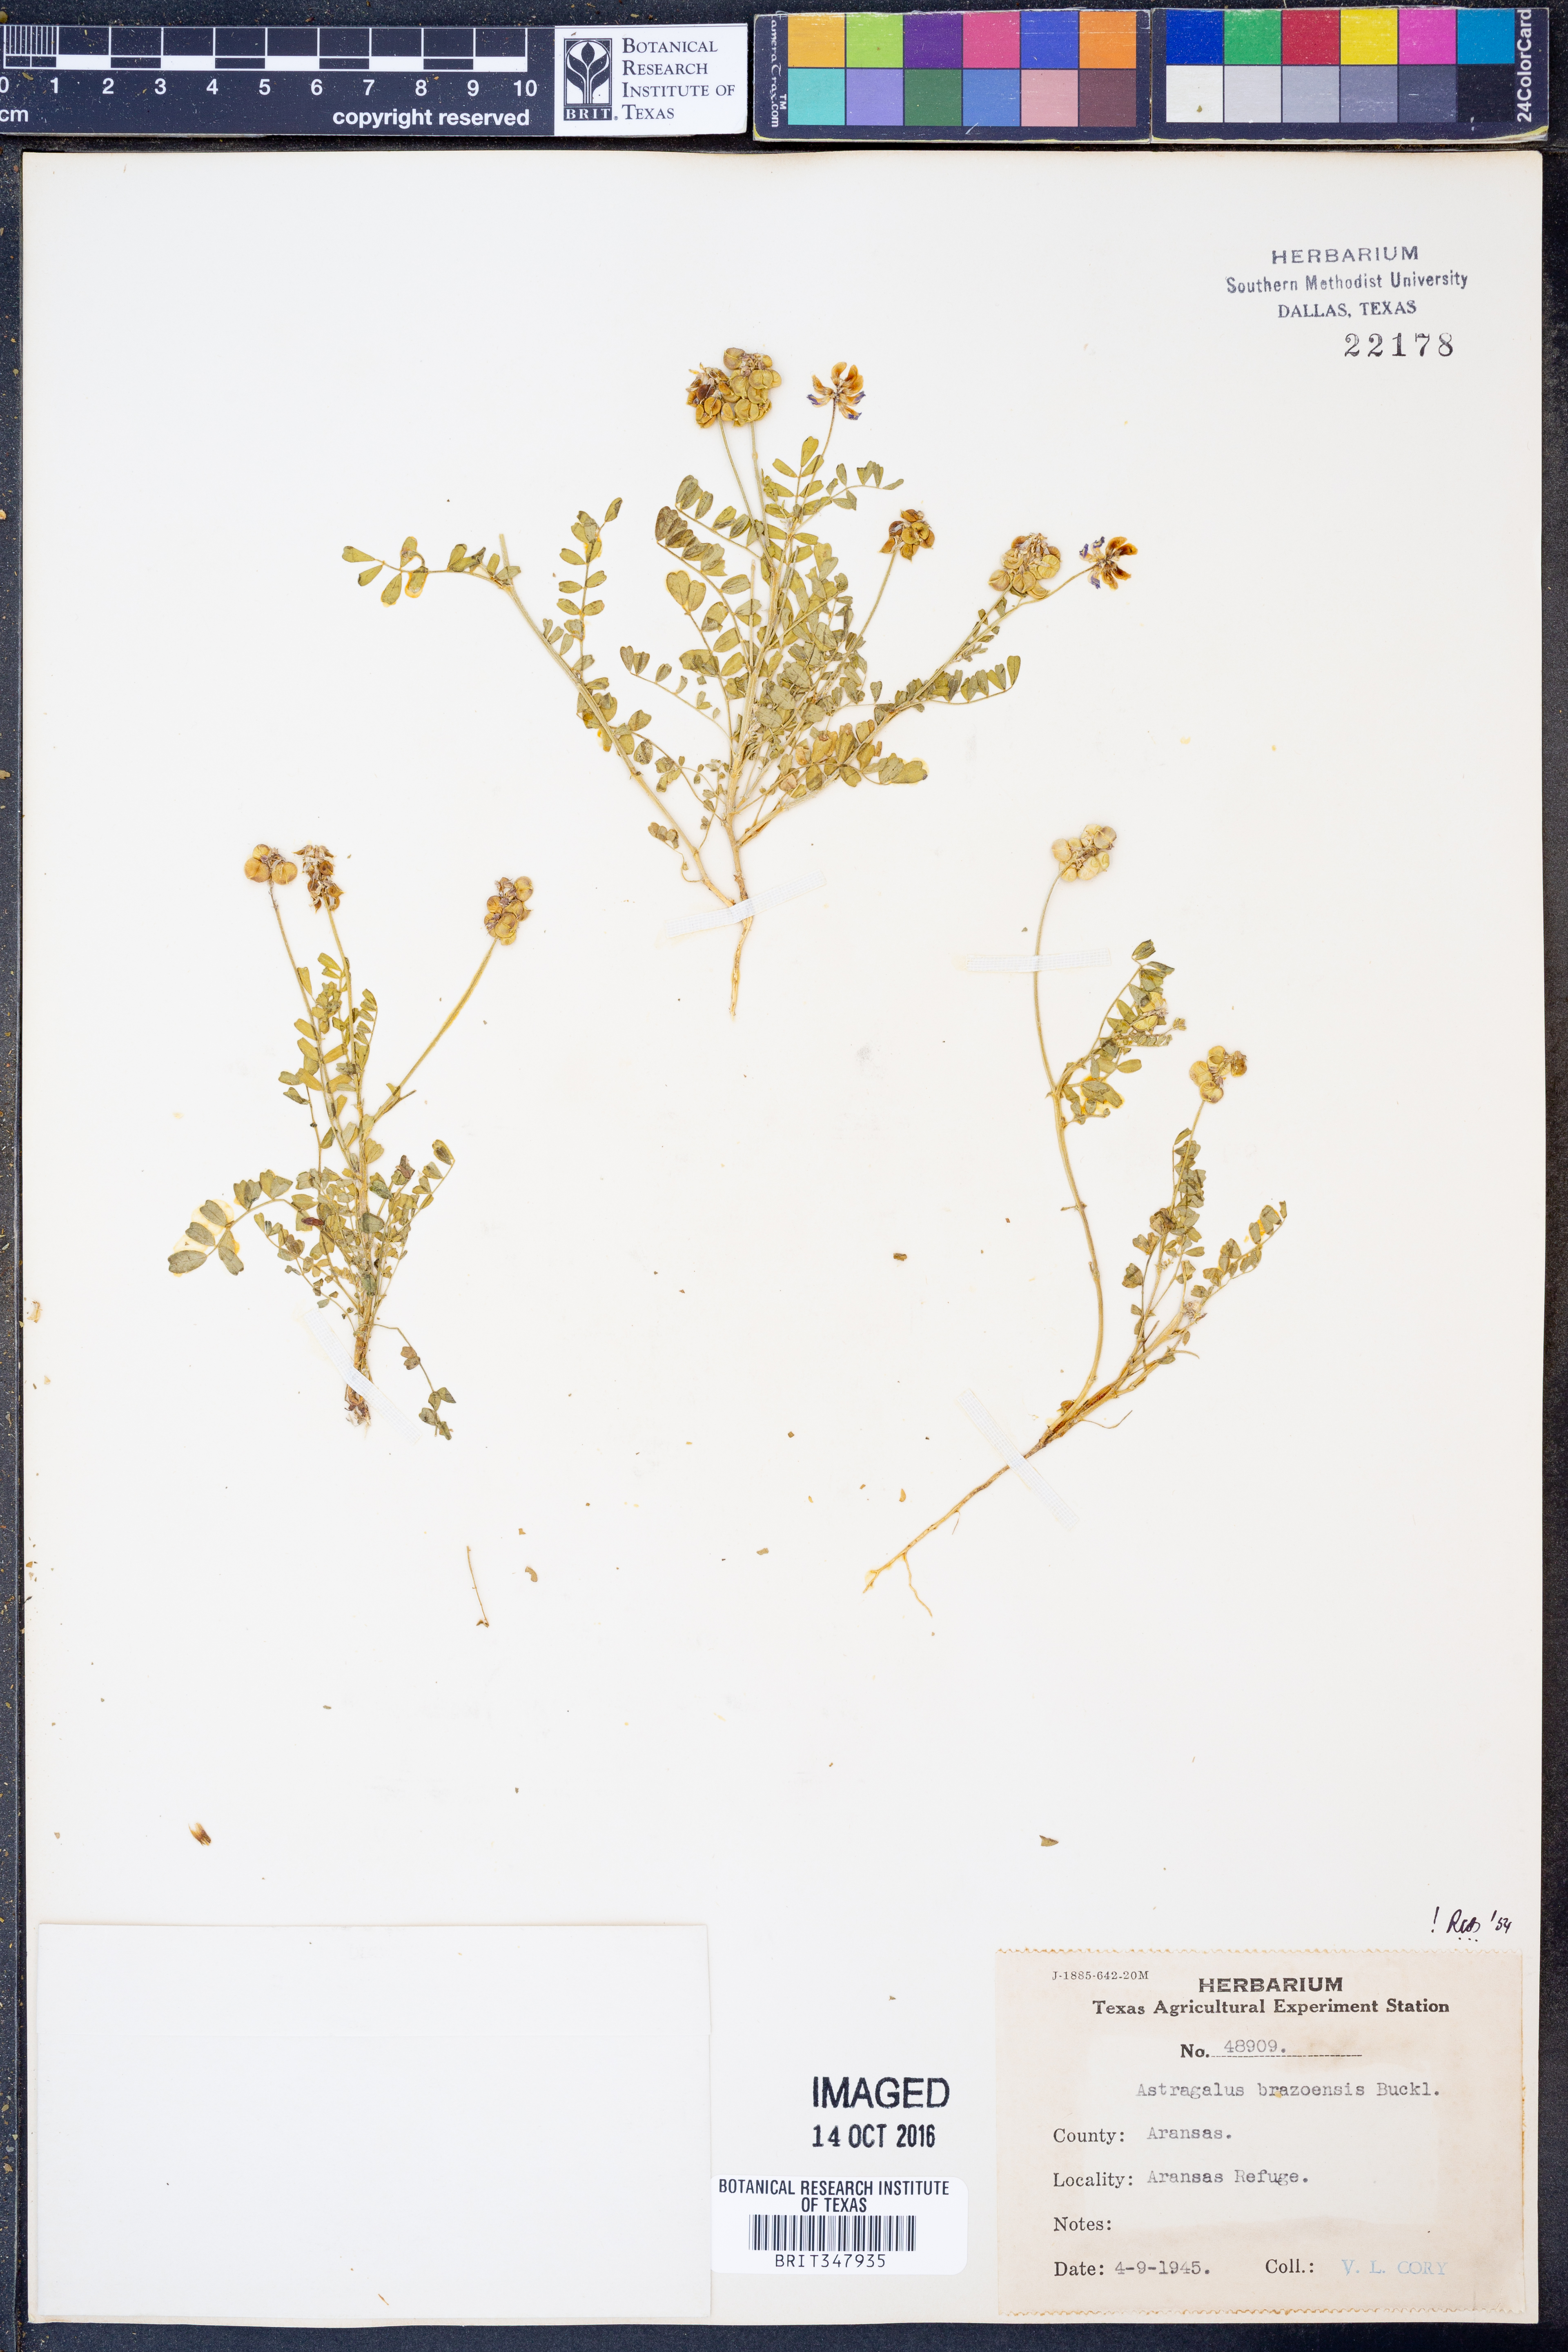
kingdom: Plantae
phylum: Tracheophyta
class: Magnoliopsida
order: Fabales
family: Fabaceae
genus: Astragalus
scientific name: Astragalus brazoensis
